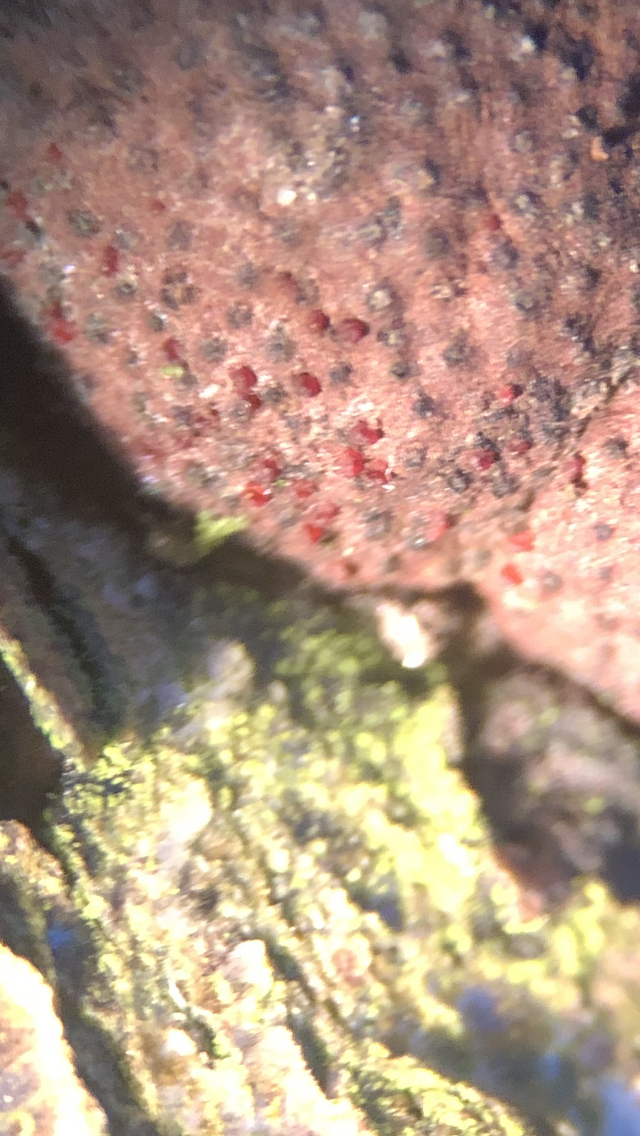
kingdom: Fungi
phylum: Ascomycota
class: Sordariomycetes
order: Hypocreales
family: Nectriaceae
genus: Cosmospora
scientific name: Cosmospora arxii
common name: kuljordbær-cinnobersvamp
